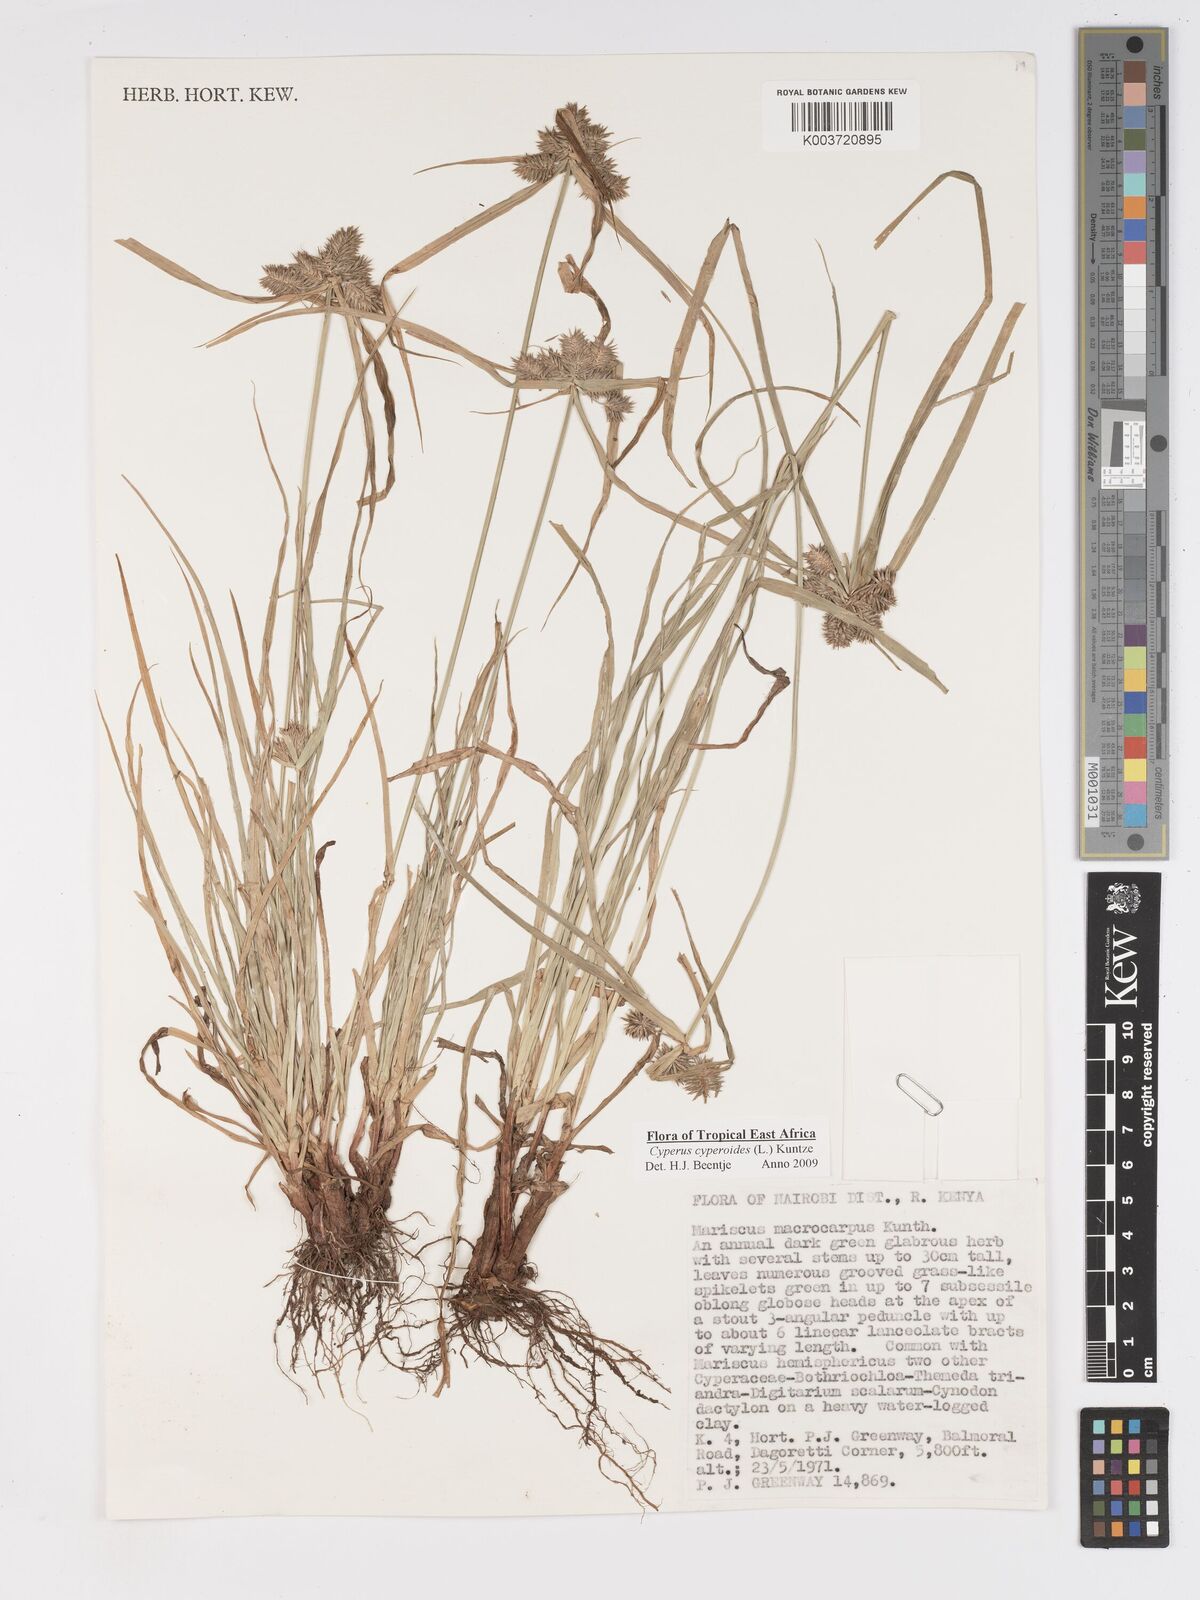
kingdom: Plantae
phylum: Tracheophyta
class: Liliopsida
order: Poales
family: Cyperaceae
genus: Cyperus
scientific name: Cyperus macrocarpus
